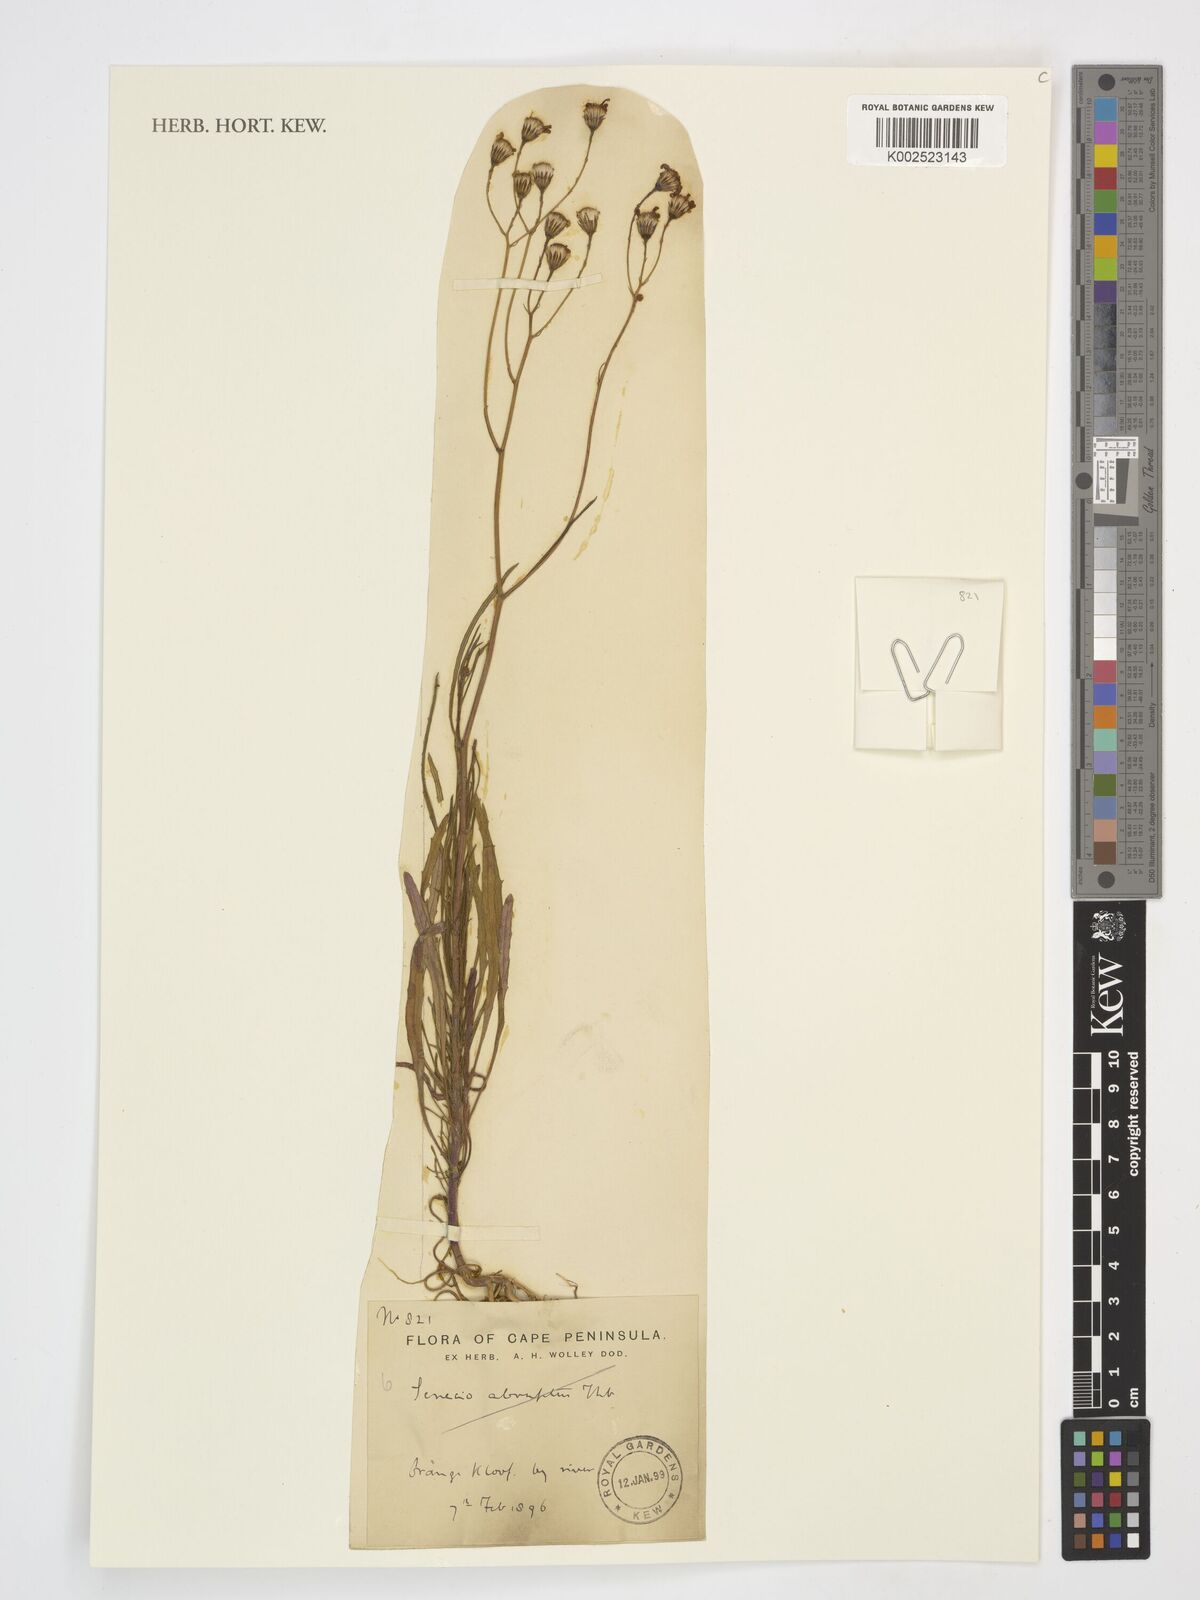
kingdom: Plantae
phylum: Tracheophyta
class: Magnoliopsida
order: Asterales
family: Asteraceae
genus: Senecio
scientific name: Senecio
